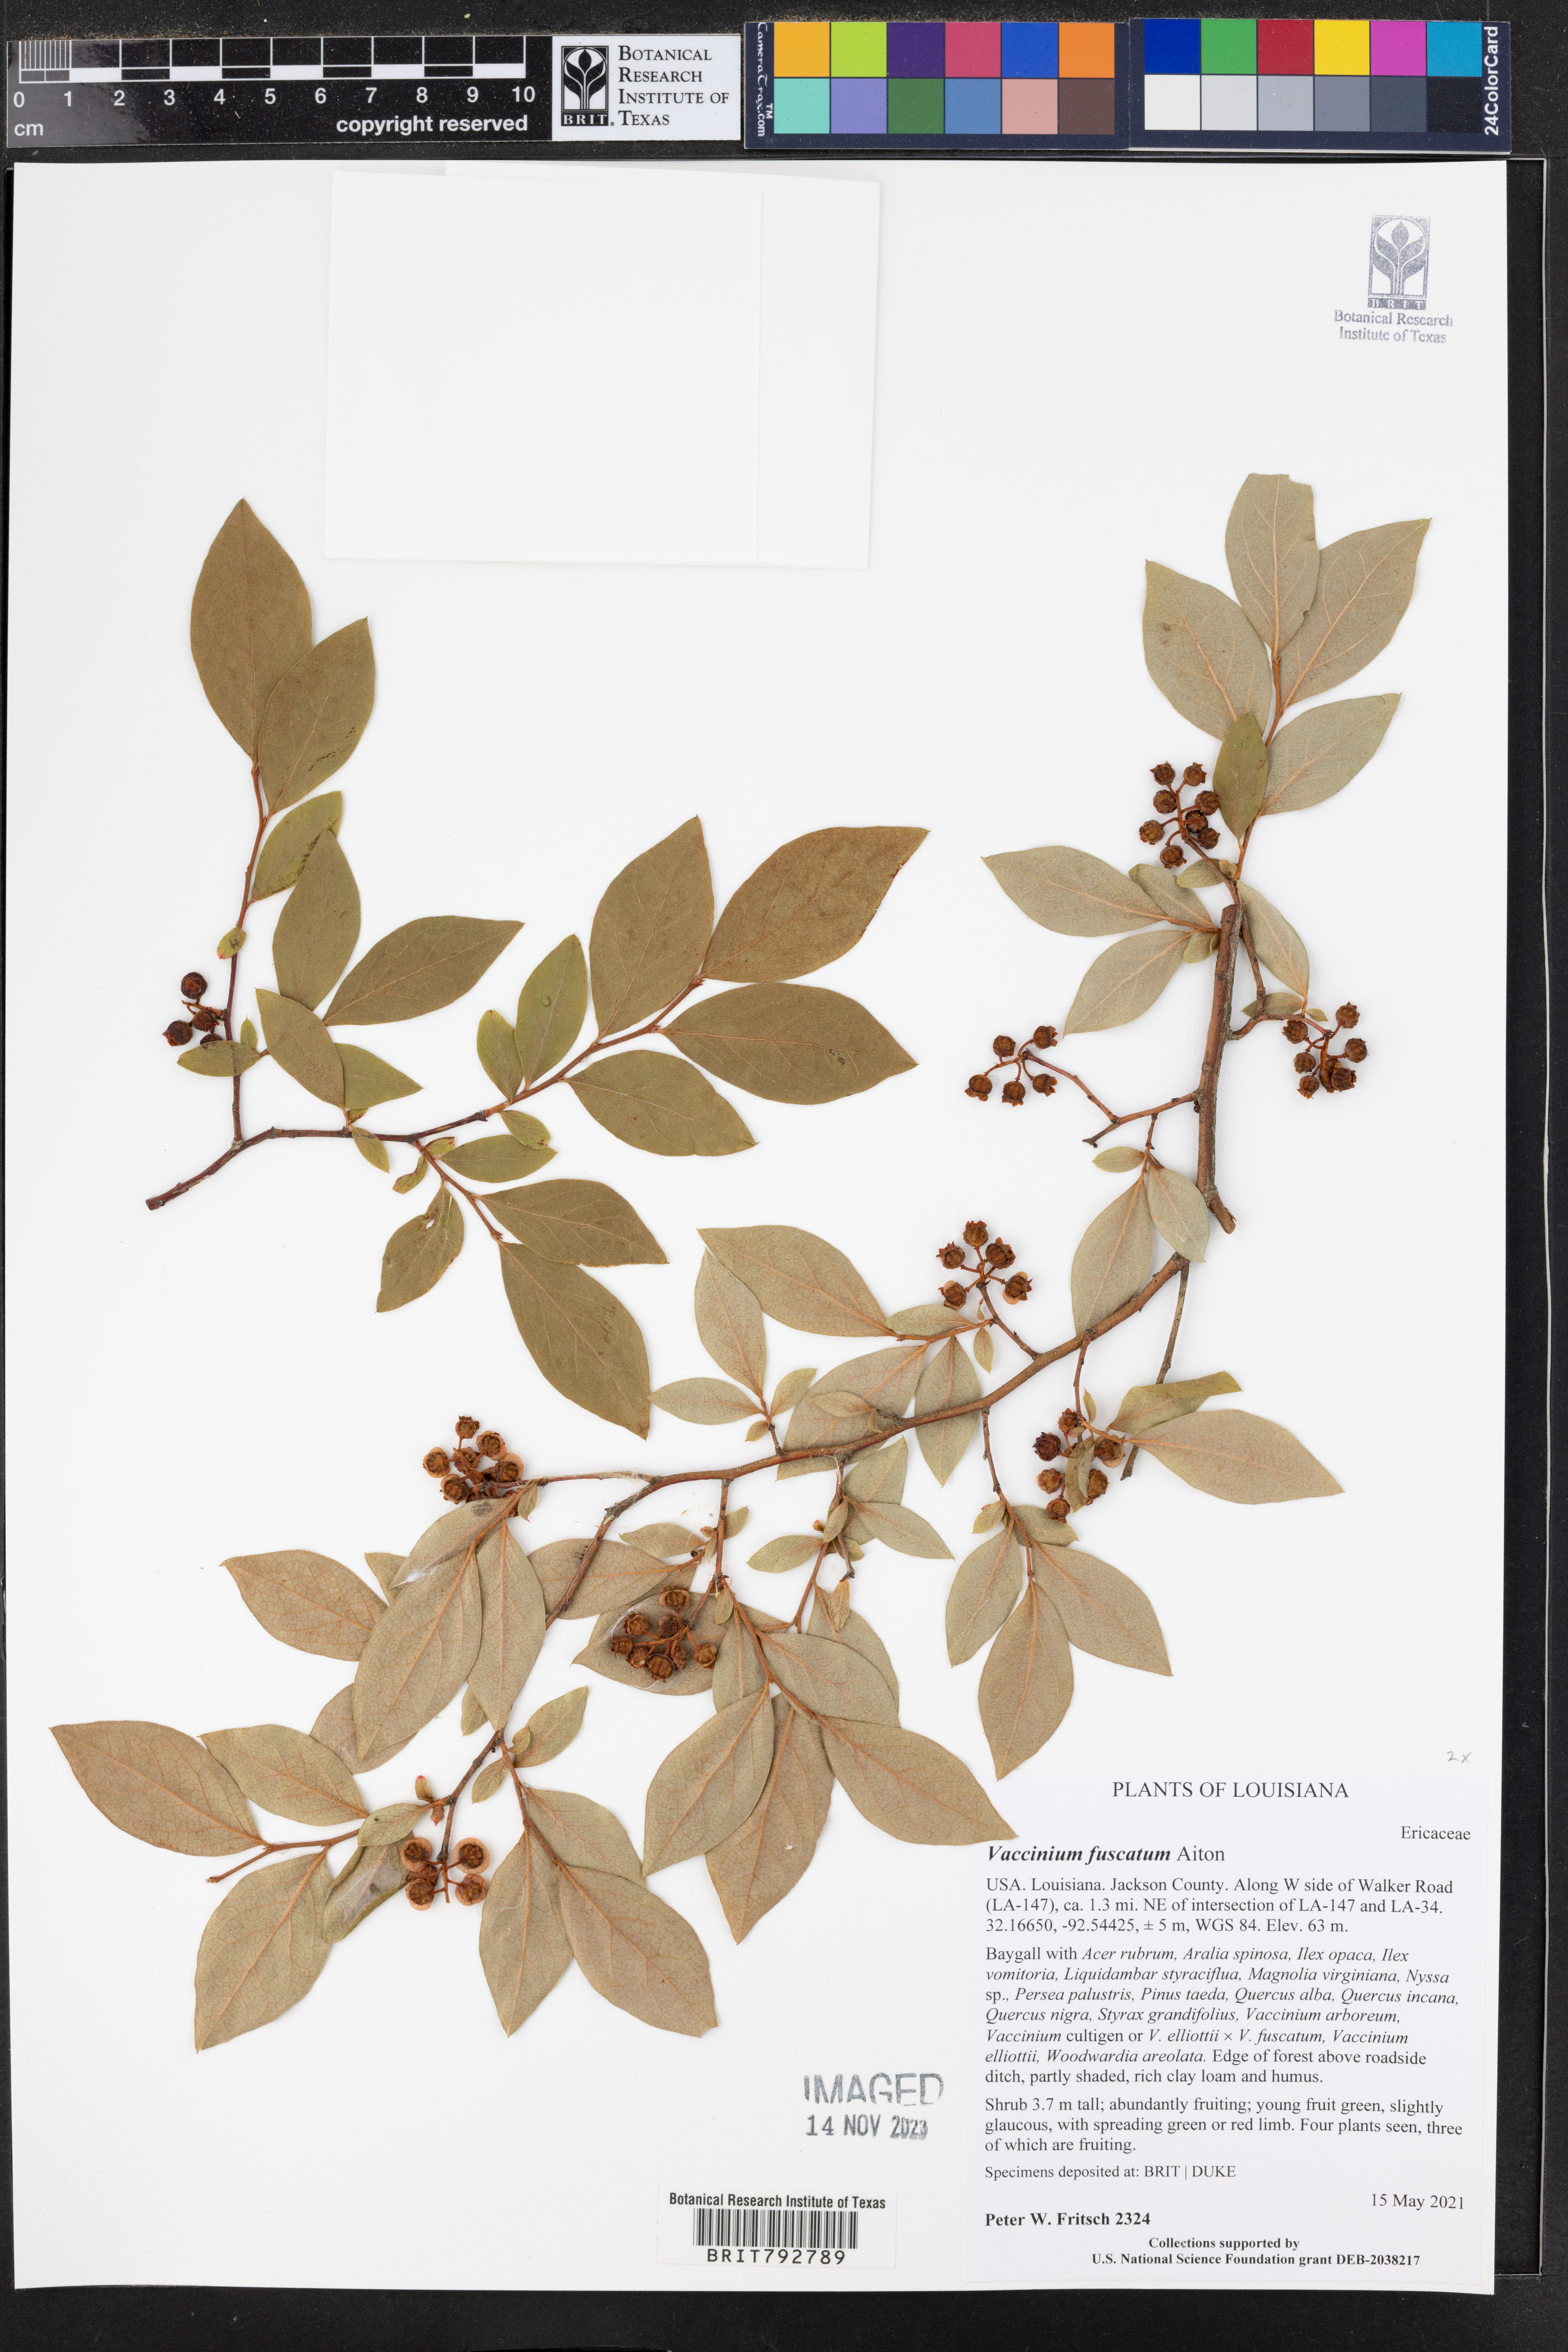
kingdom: Plantae
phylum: Tracheophyta
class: Magnoliopsida
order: Ericales
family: Ericaceae
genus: Vaccinium
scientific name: Vaccinium corymbosum
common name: Blueberry
